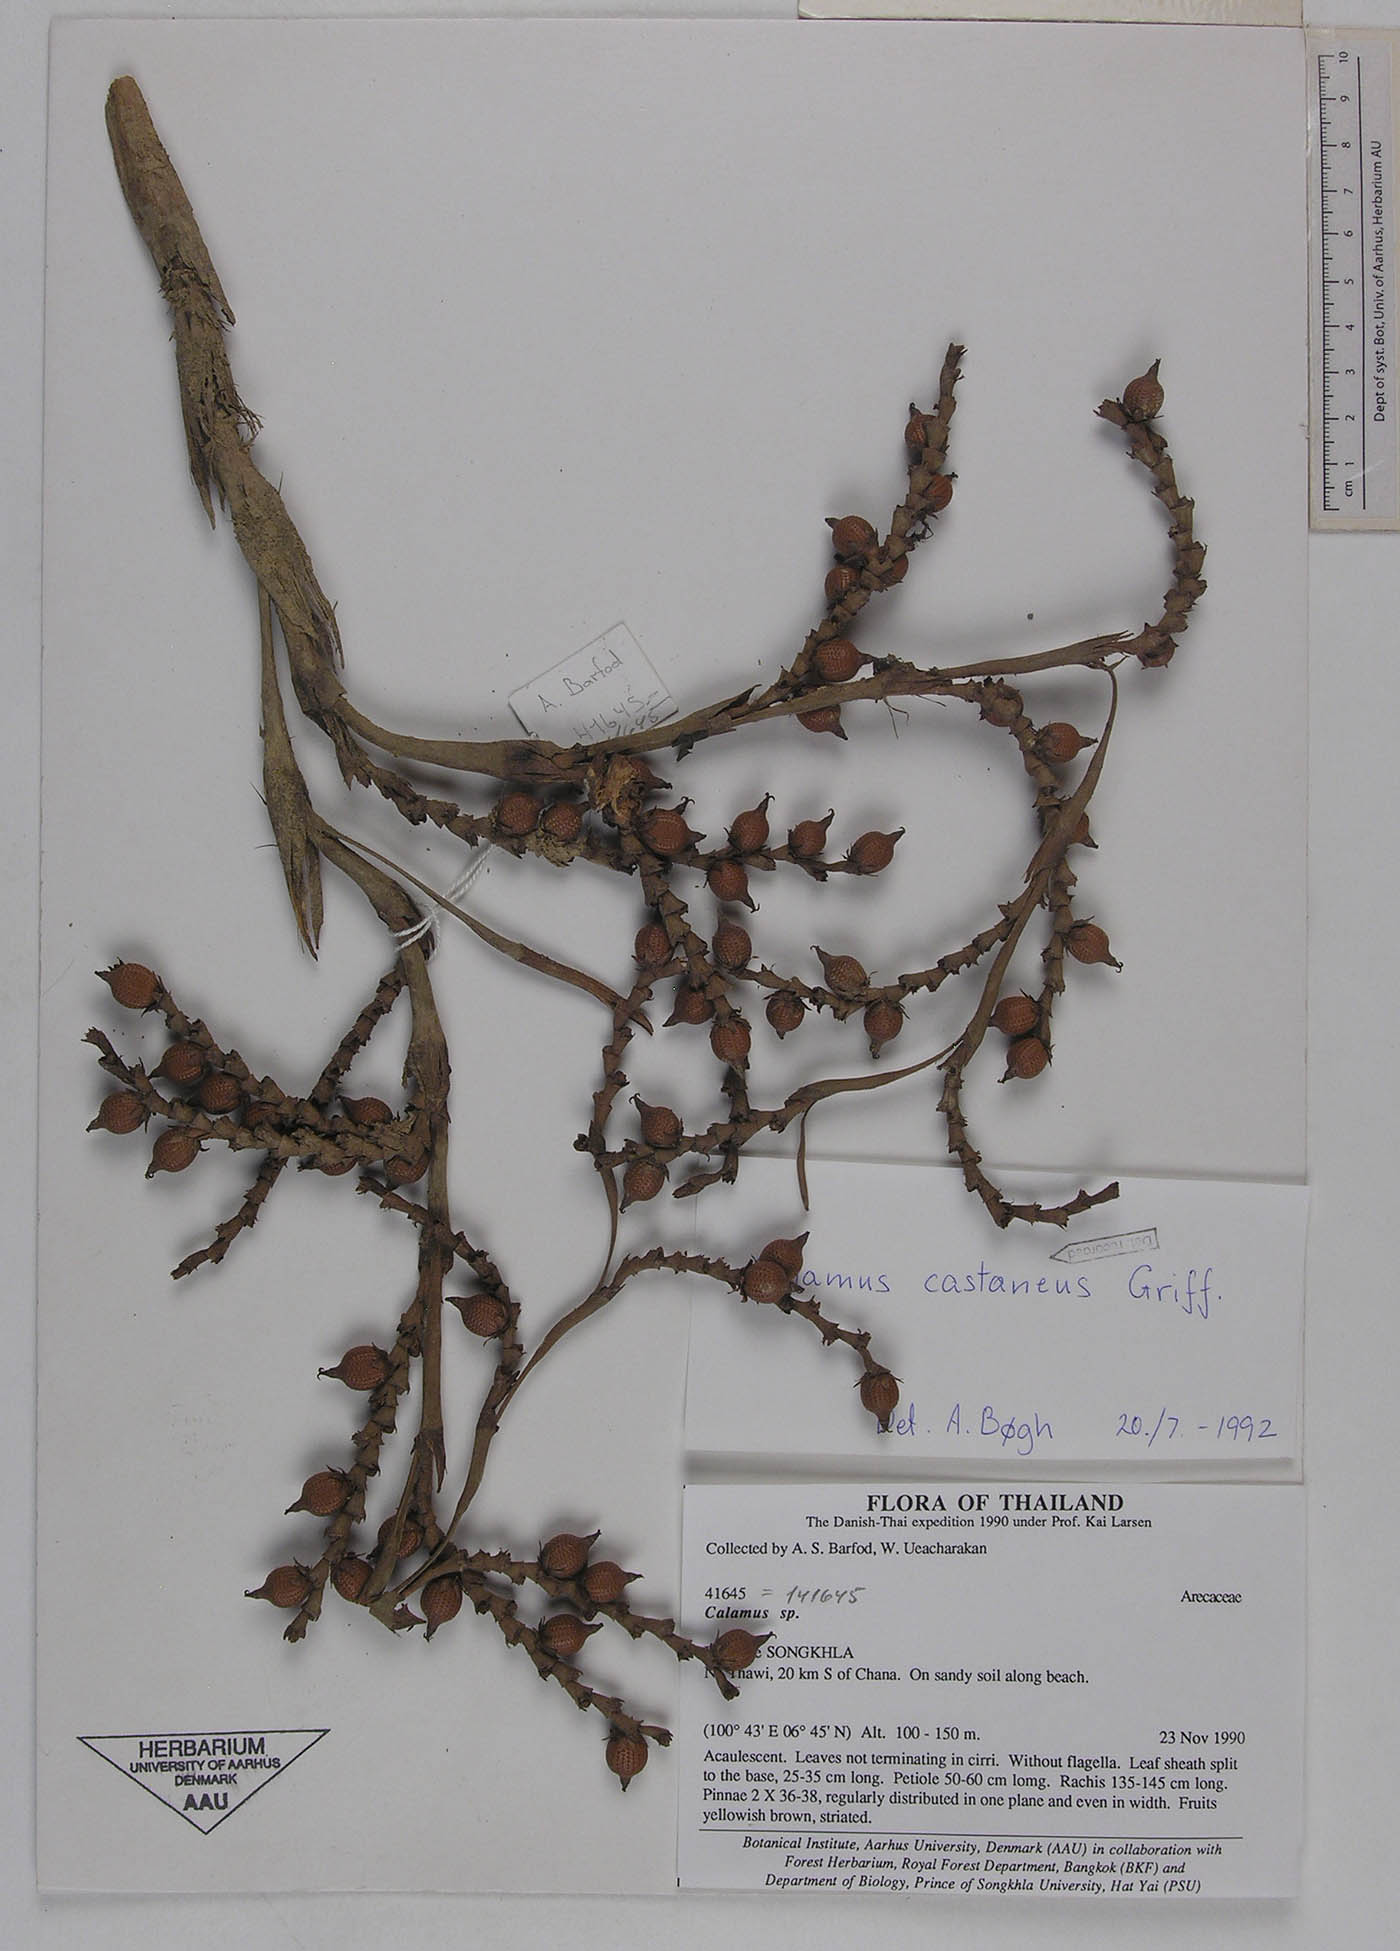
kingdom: Plantae
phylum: Tracheophyta
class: Liliopsida
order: Arecales
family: Arecaceae
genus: Calamus
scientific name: Calamus castaneus
